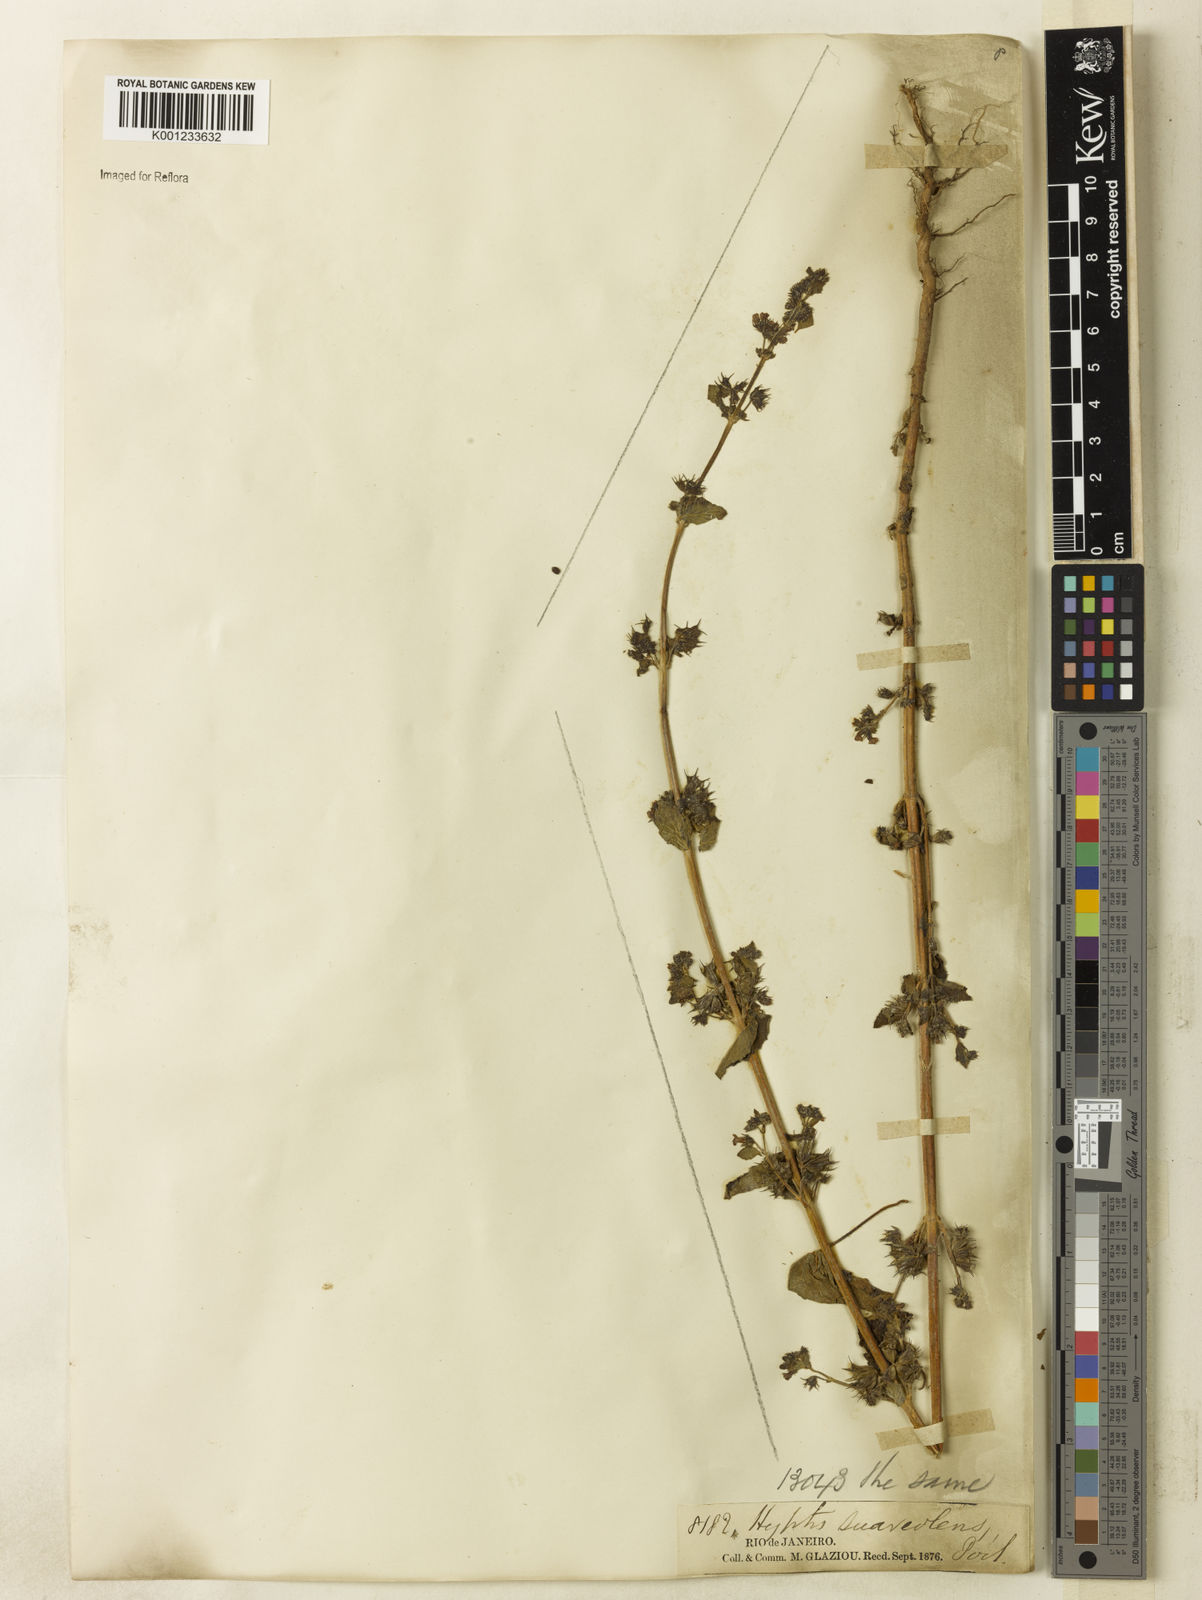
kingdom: Plantae
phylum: Tracheophyta
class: Magnoliopsida
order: Lamiales
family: Lamiaceae
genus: Mesosphaerum
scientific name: Mesosphaerum suaveolens
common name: Pignut
